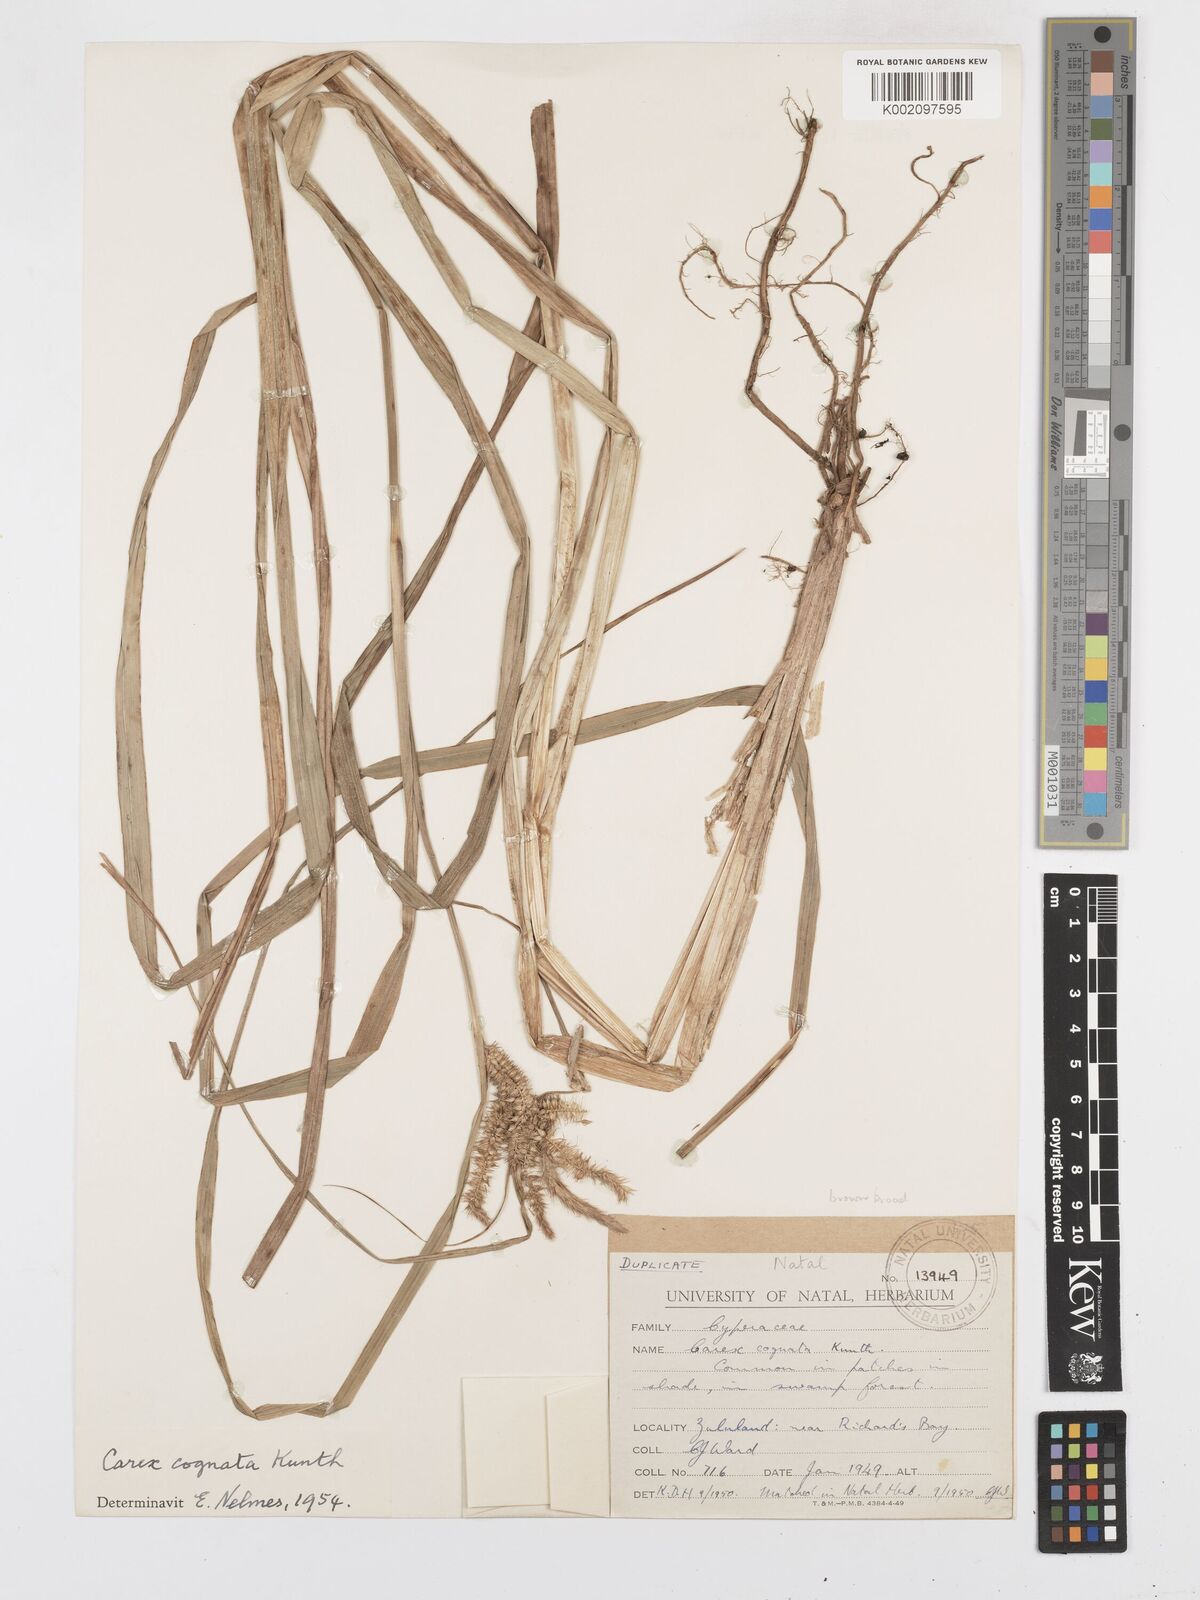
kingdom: Plantae
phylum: Tracheophyta
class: Liliopsida
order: Poales
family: Cyperaceae
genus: Carex
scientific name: Carex cognata
